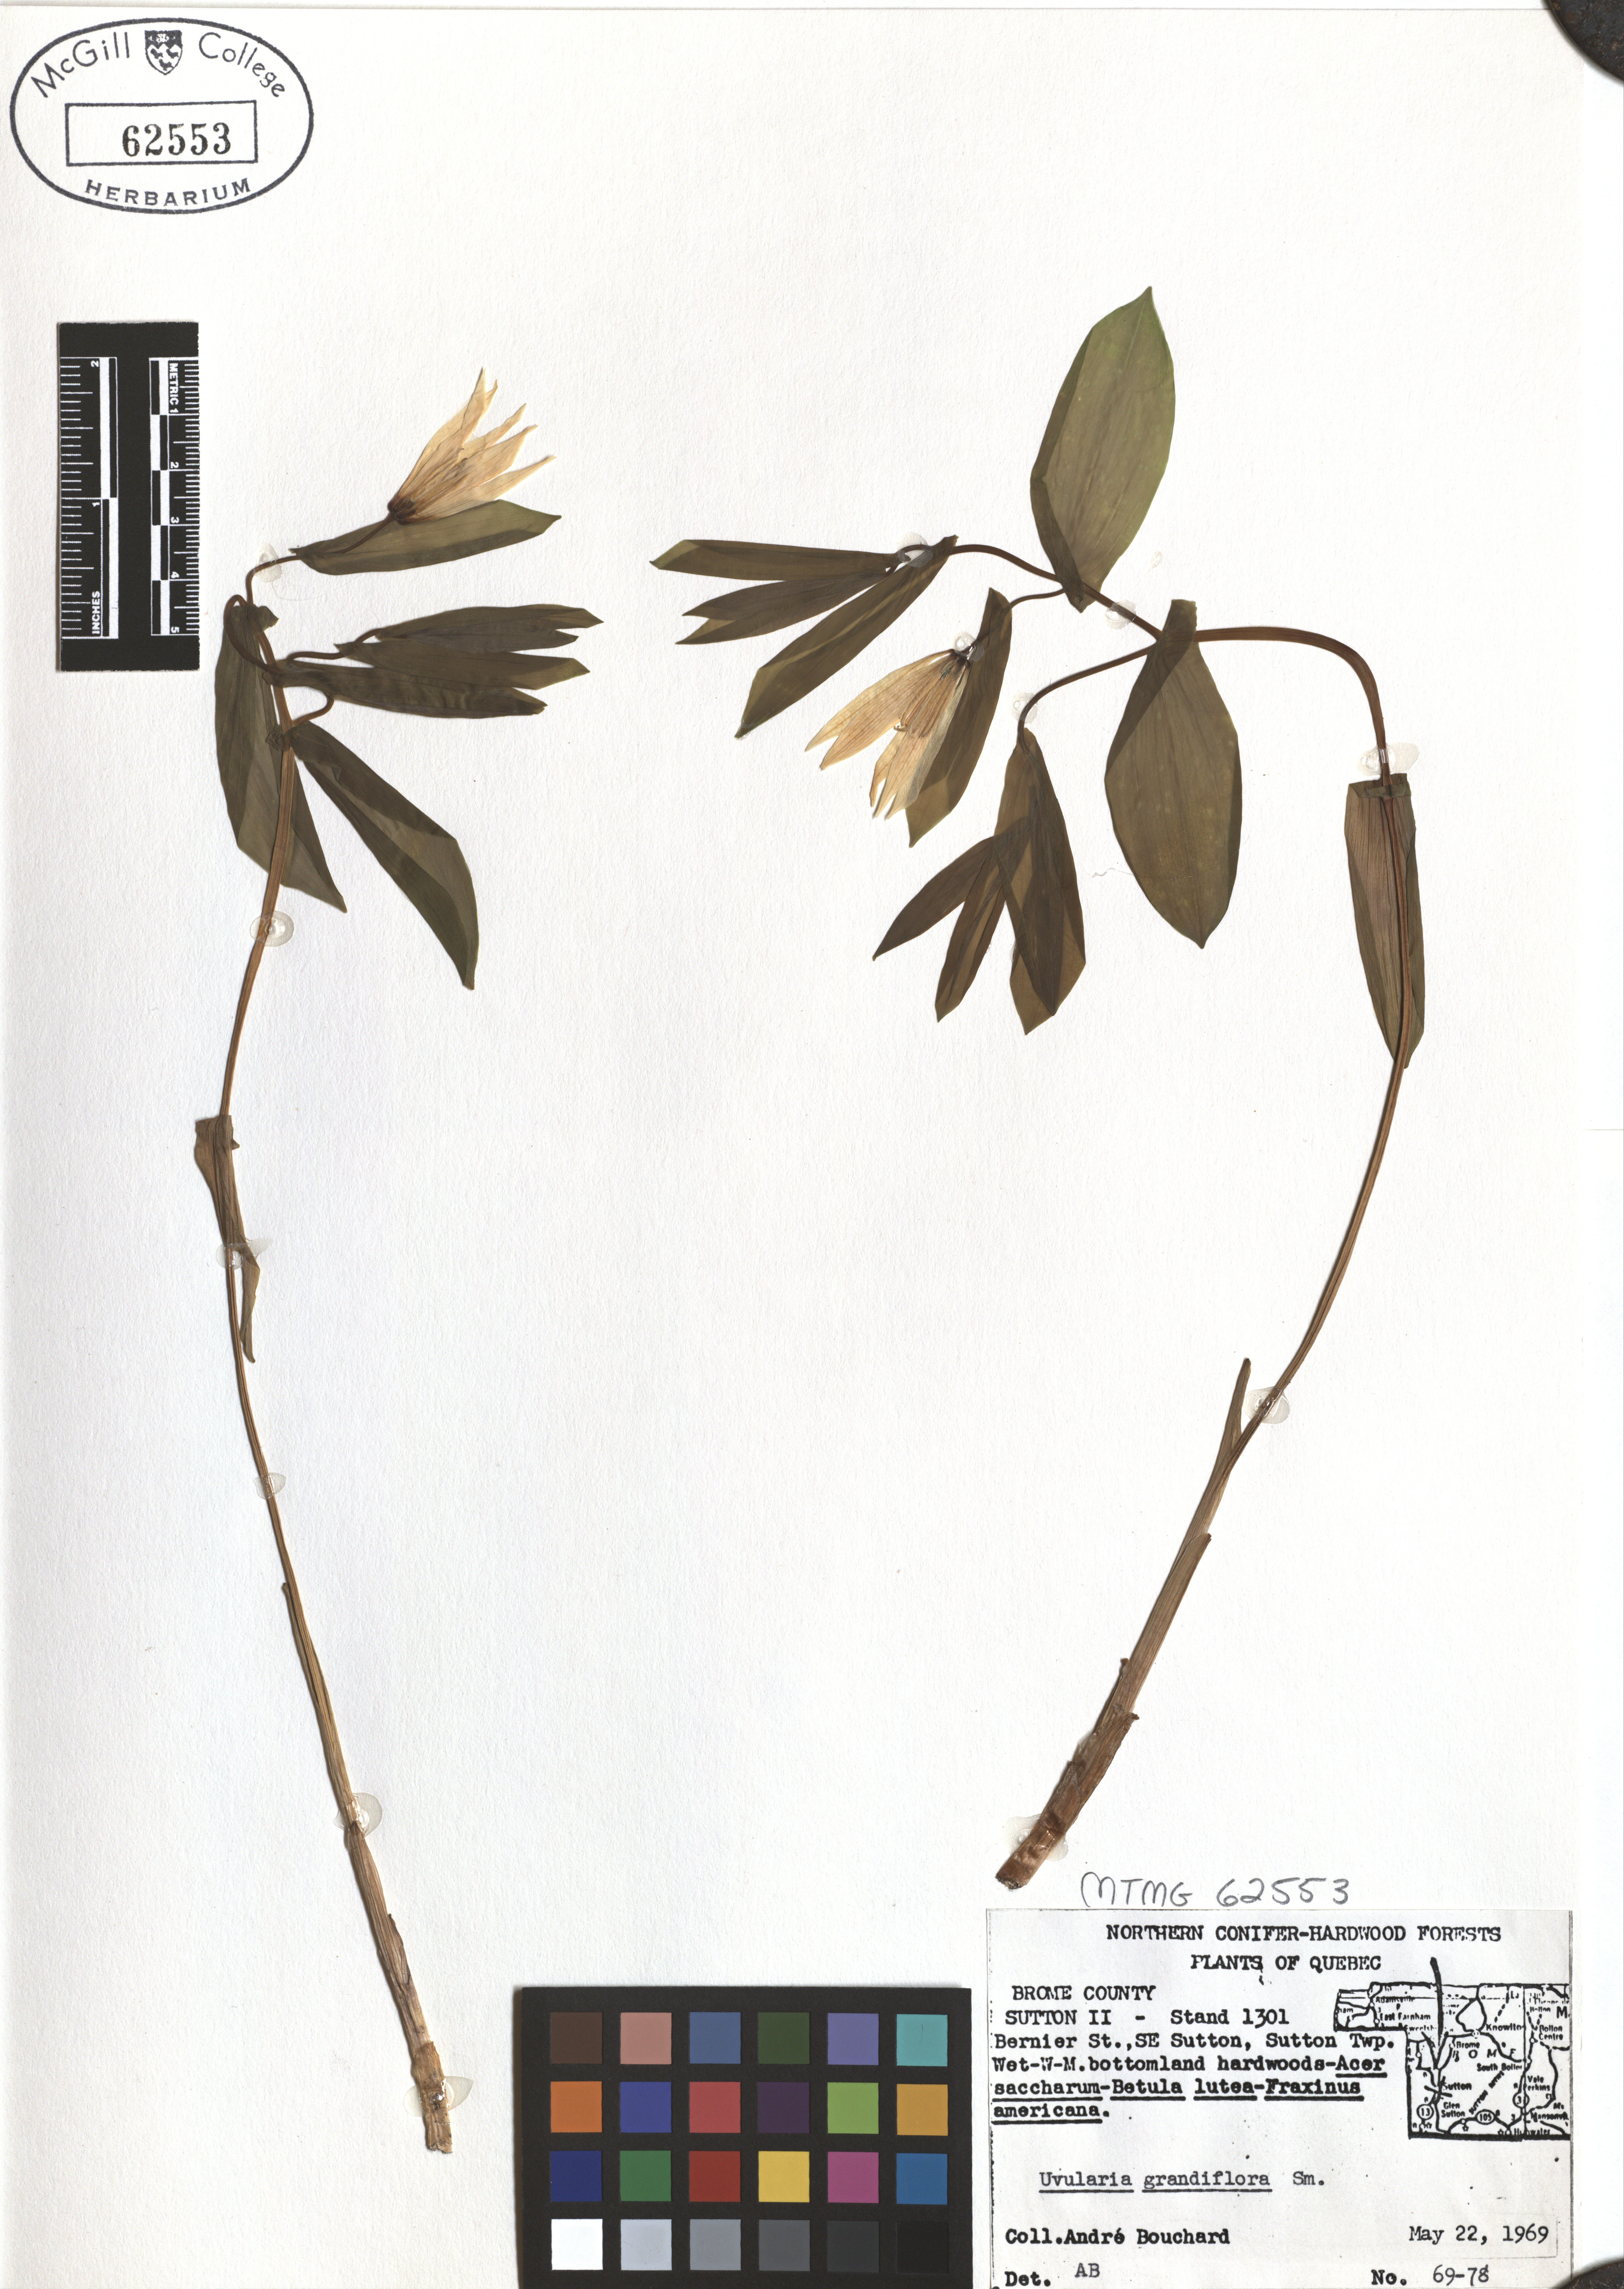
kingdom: Plantae
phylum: Tracheophyta
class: Liliopsida
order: Liliales
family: Colchicaceae
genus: Uvularia
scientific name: Uvularia grandiflora
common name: Bellwort
